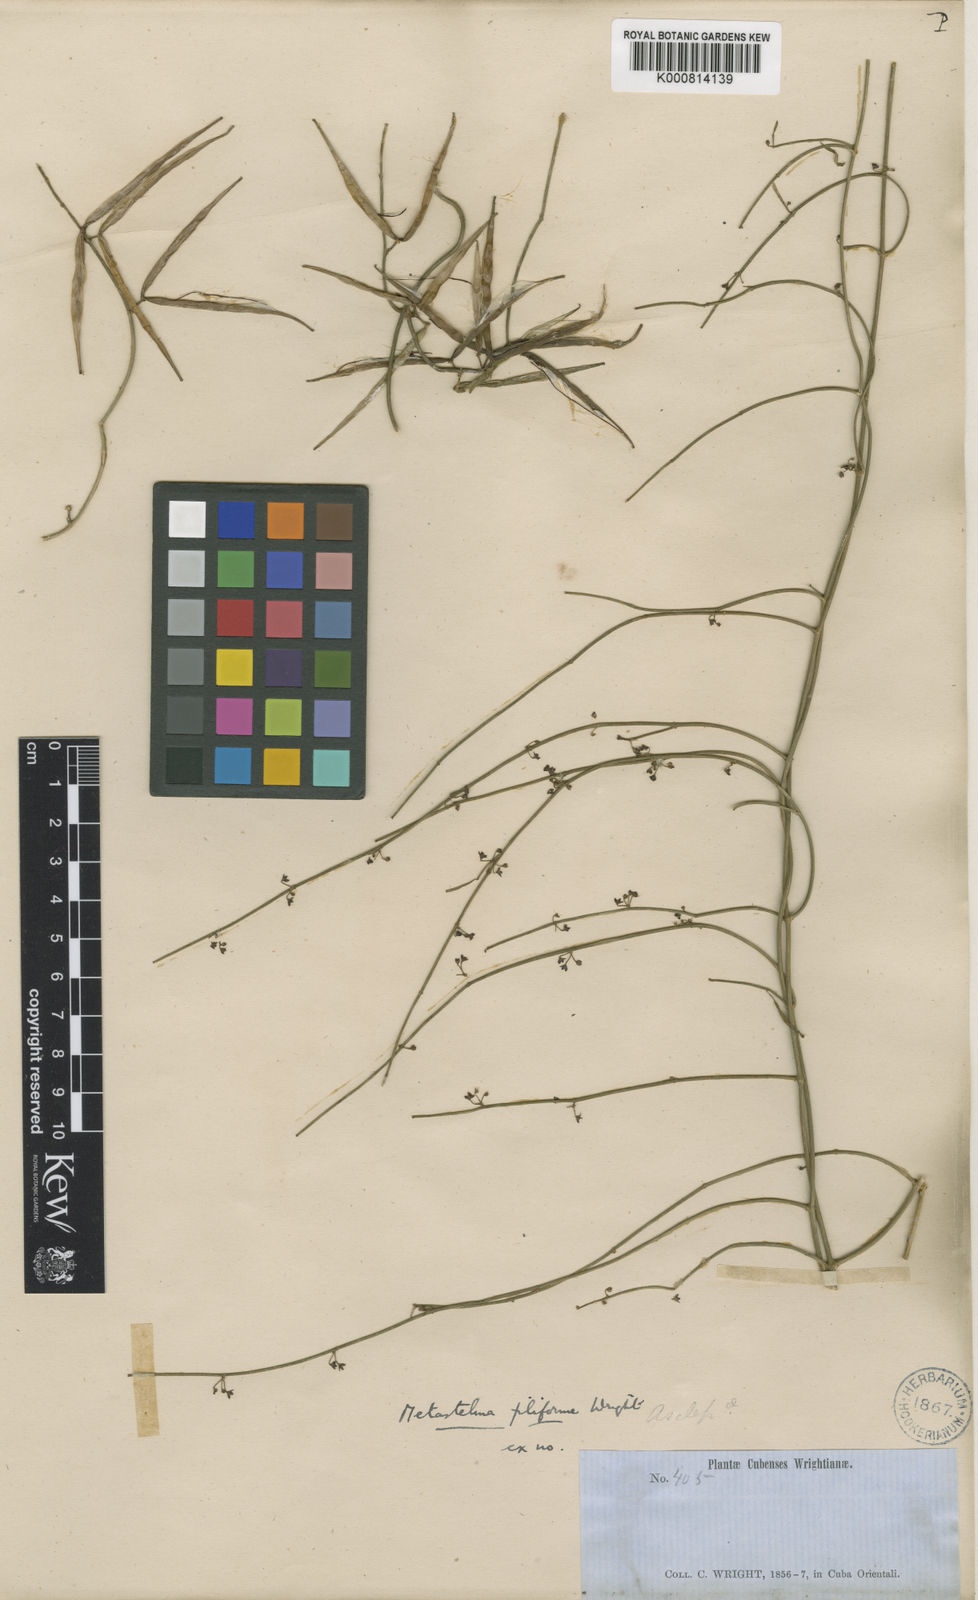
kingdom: Plantae
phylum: Tracheophyta
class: Magnoliopsida
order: Gentianales
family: Apocynaceae
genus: Orthosia
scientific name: Orthosia scoparia
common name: Leafless swallow-wort
